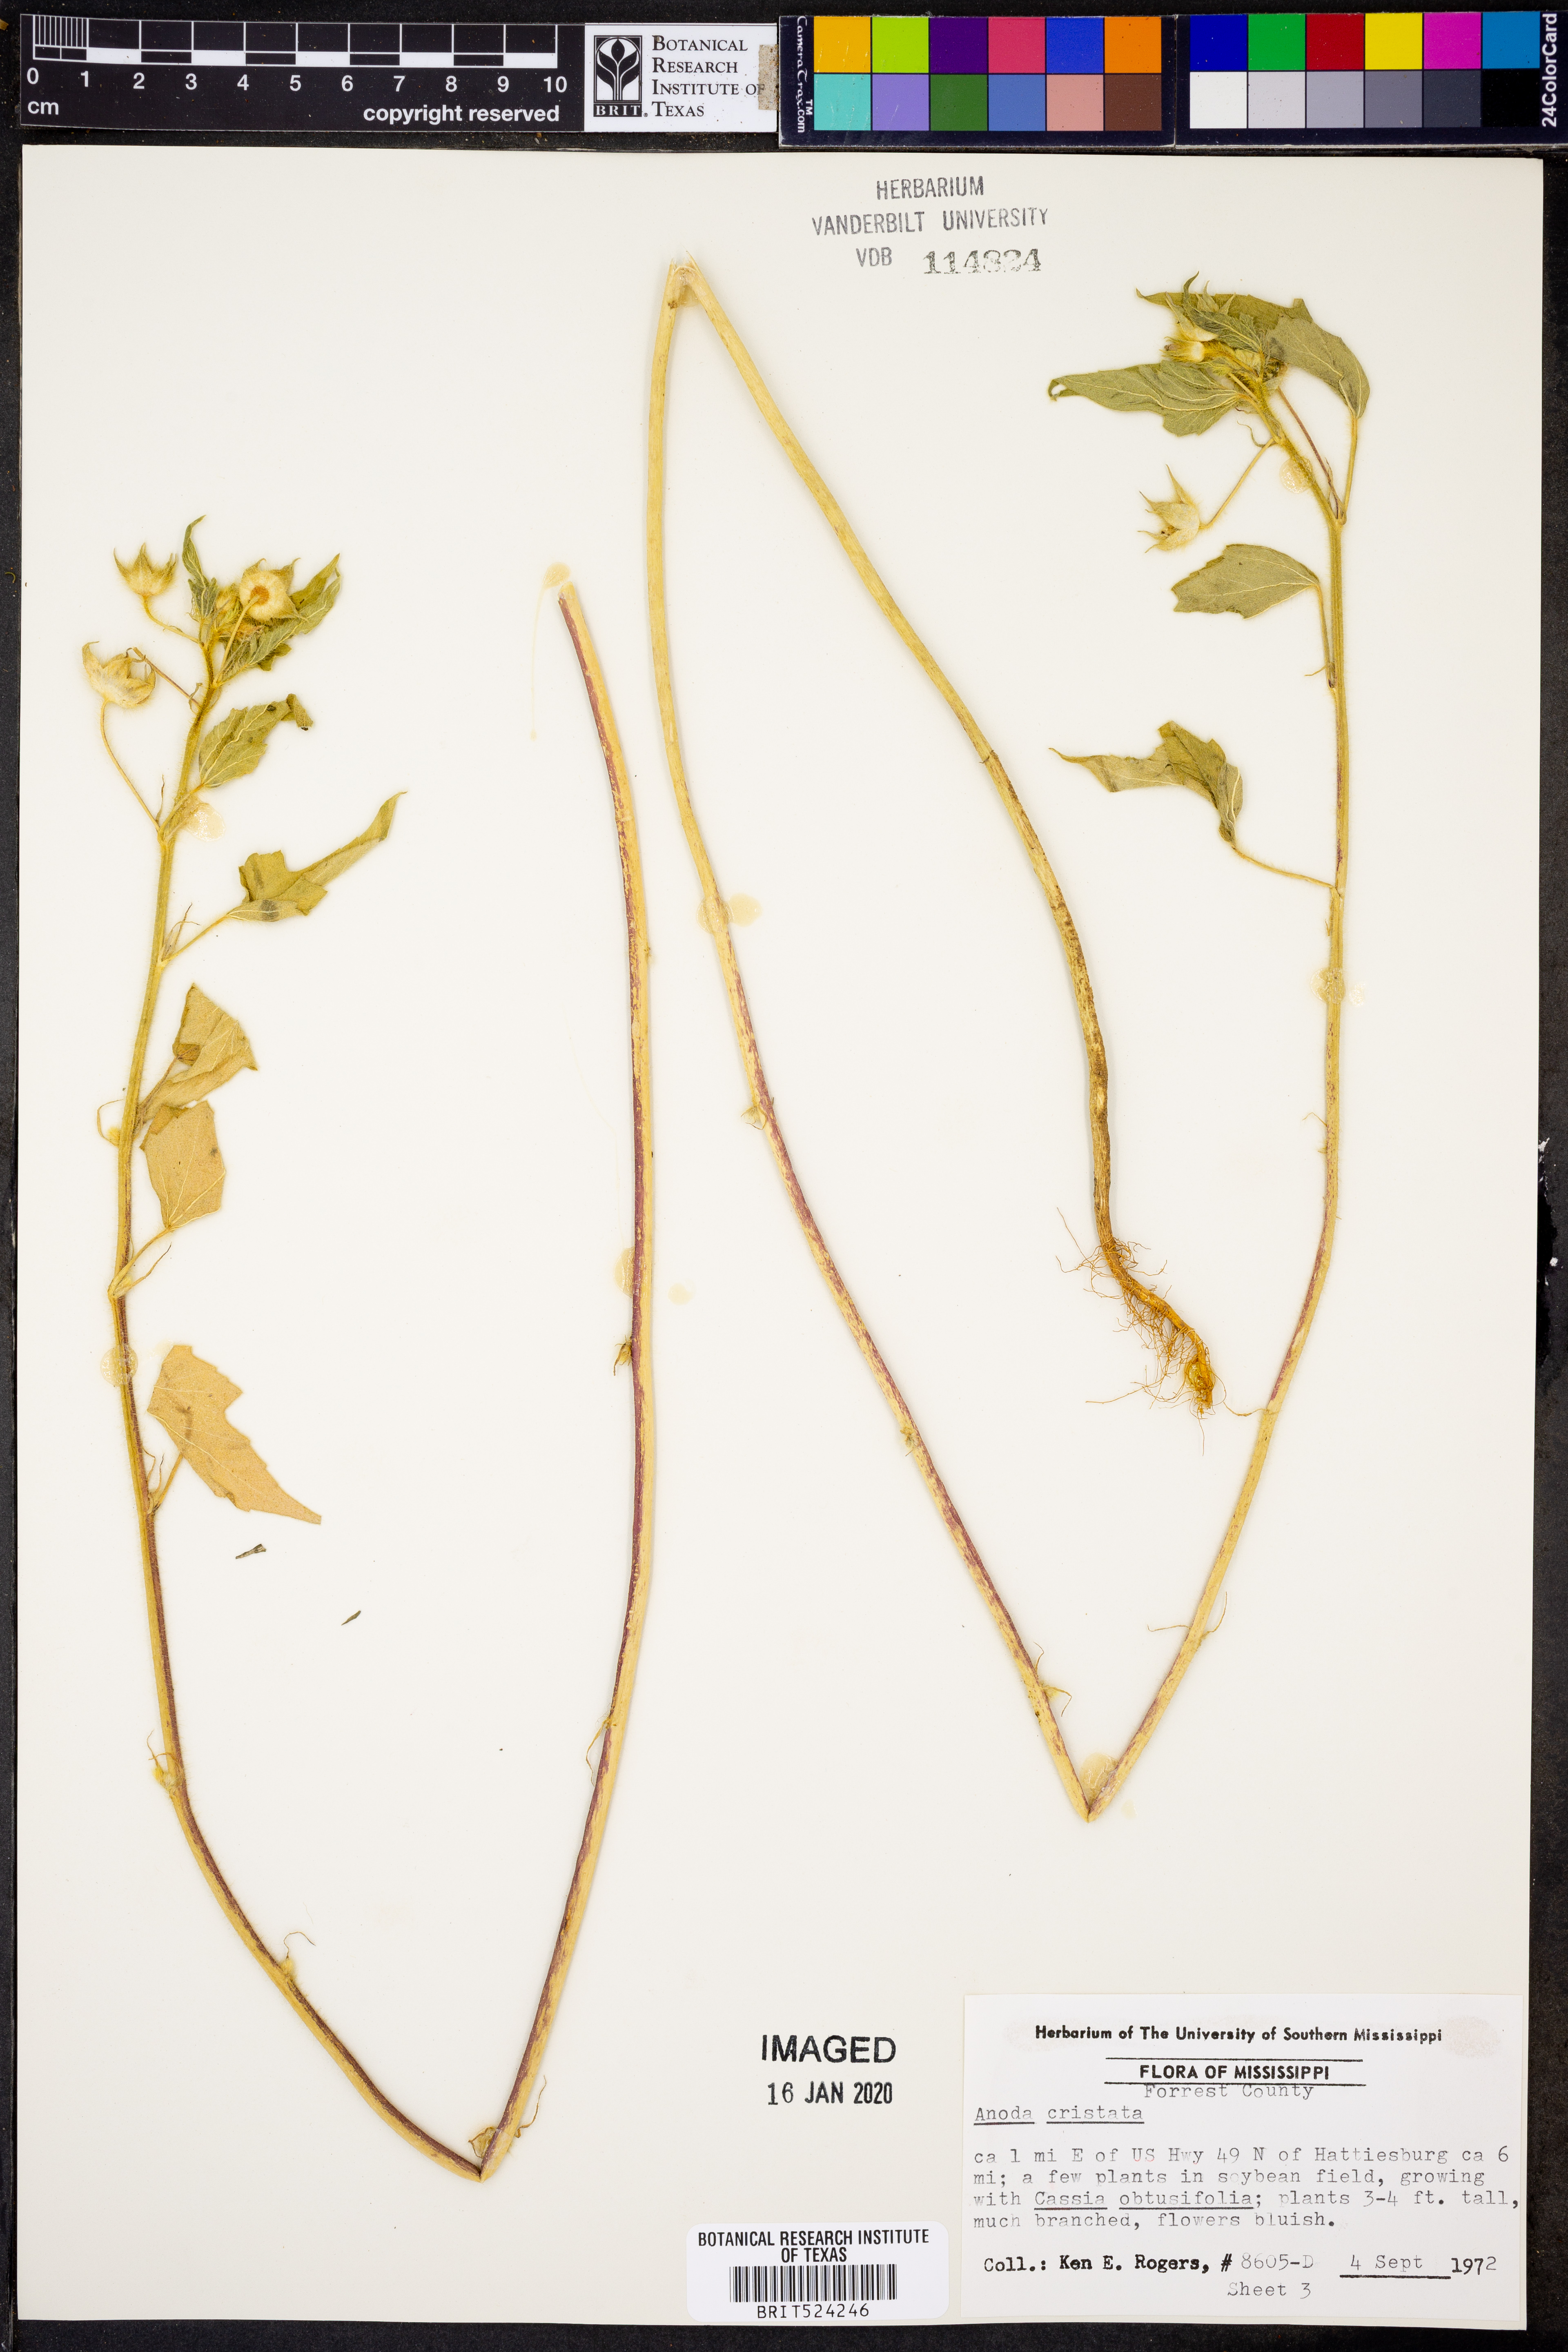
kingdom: Plantae
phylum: Tracheophyta
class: Magnoliopsida
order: Malvales
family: Malvaceae
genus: Anoda
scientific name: Anoda cristata
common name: Spurred anoda
